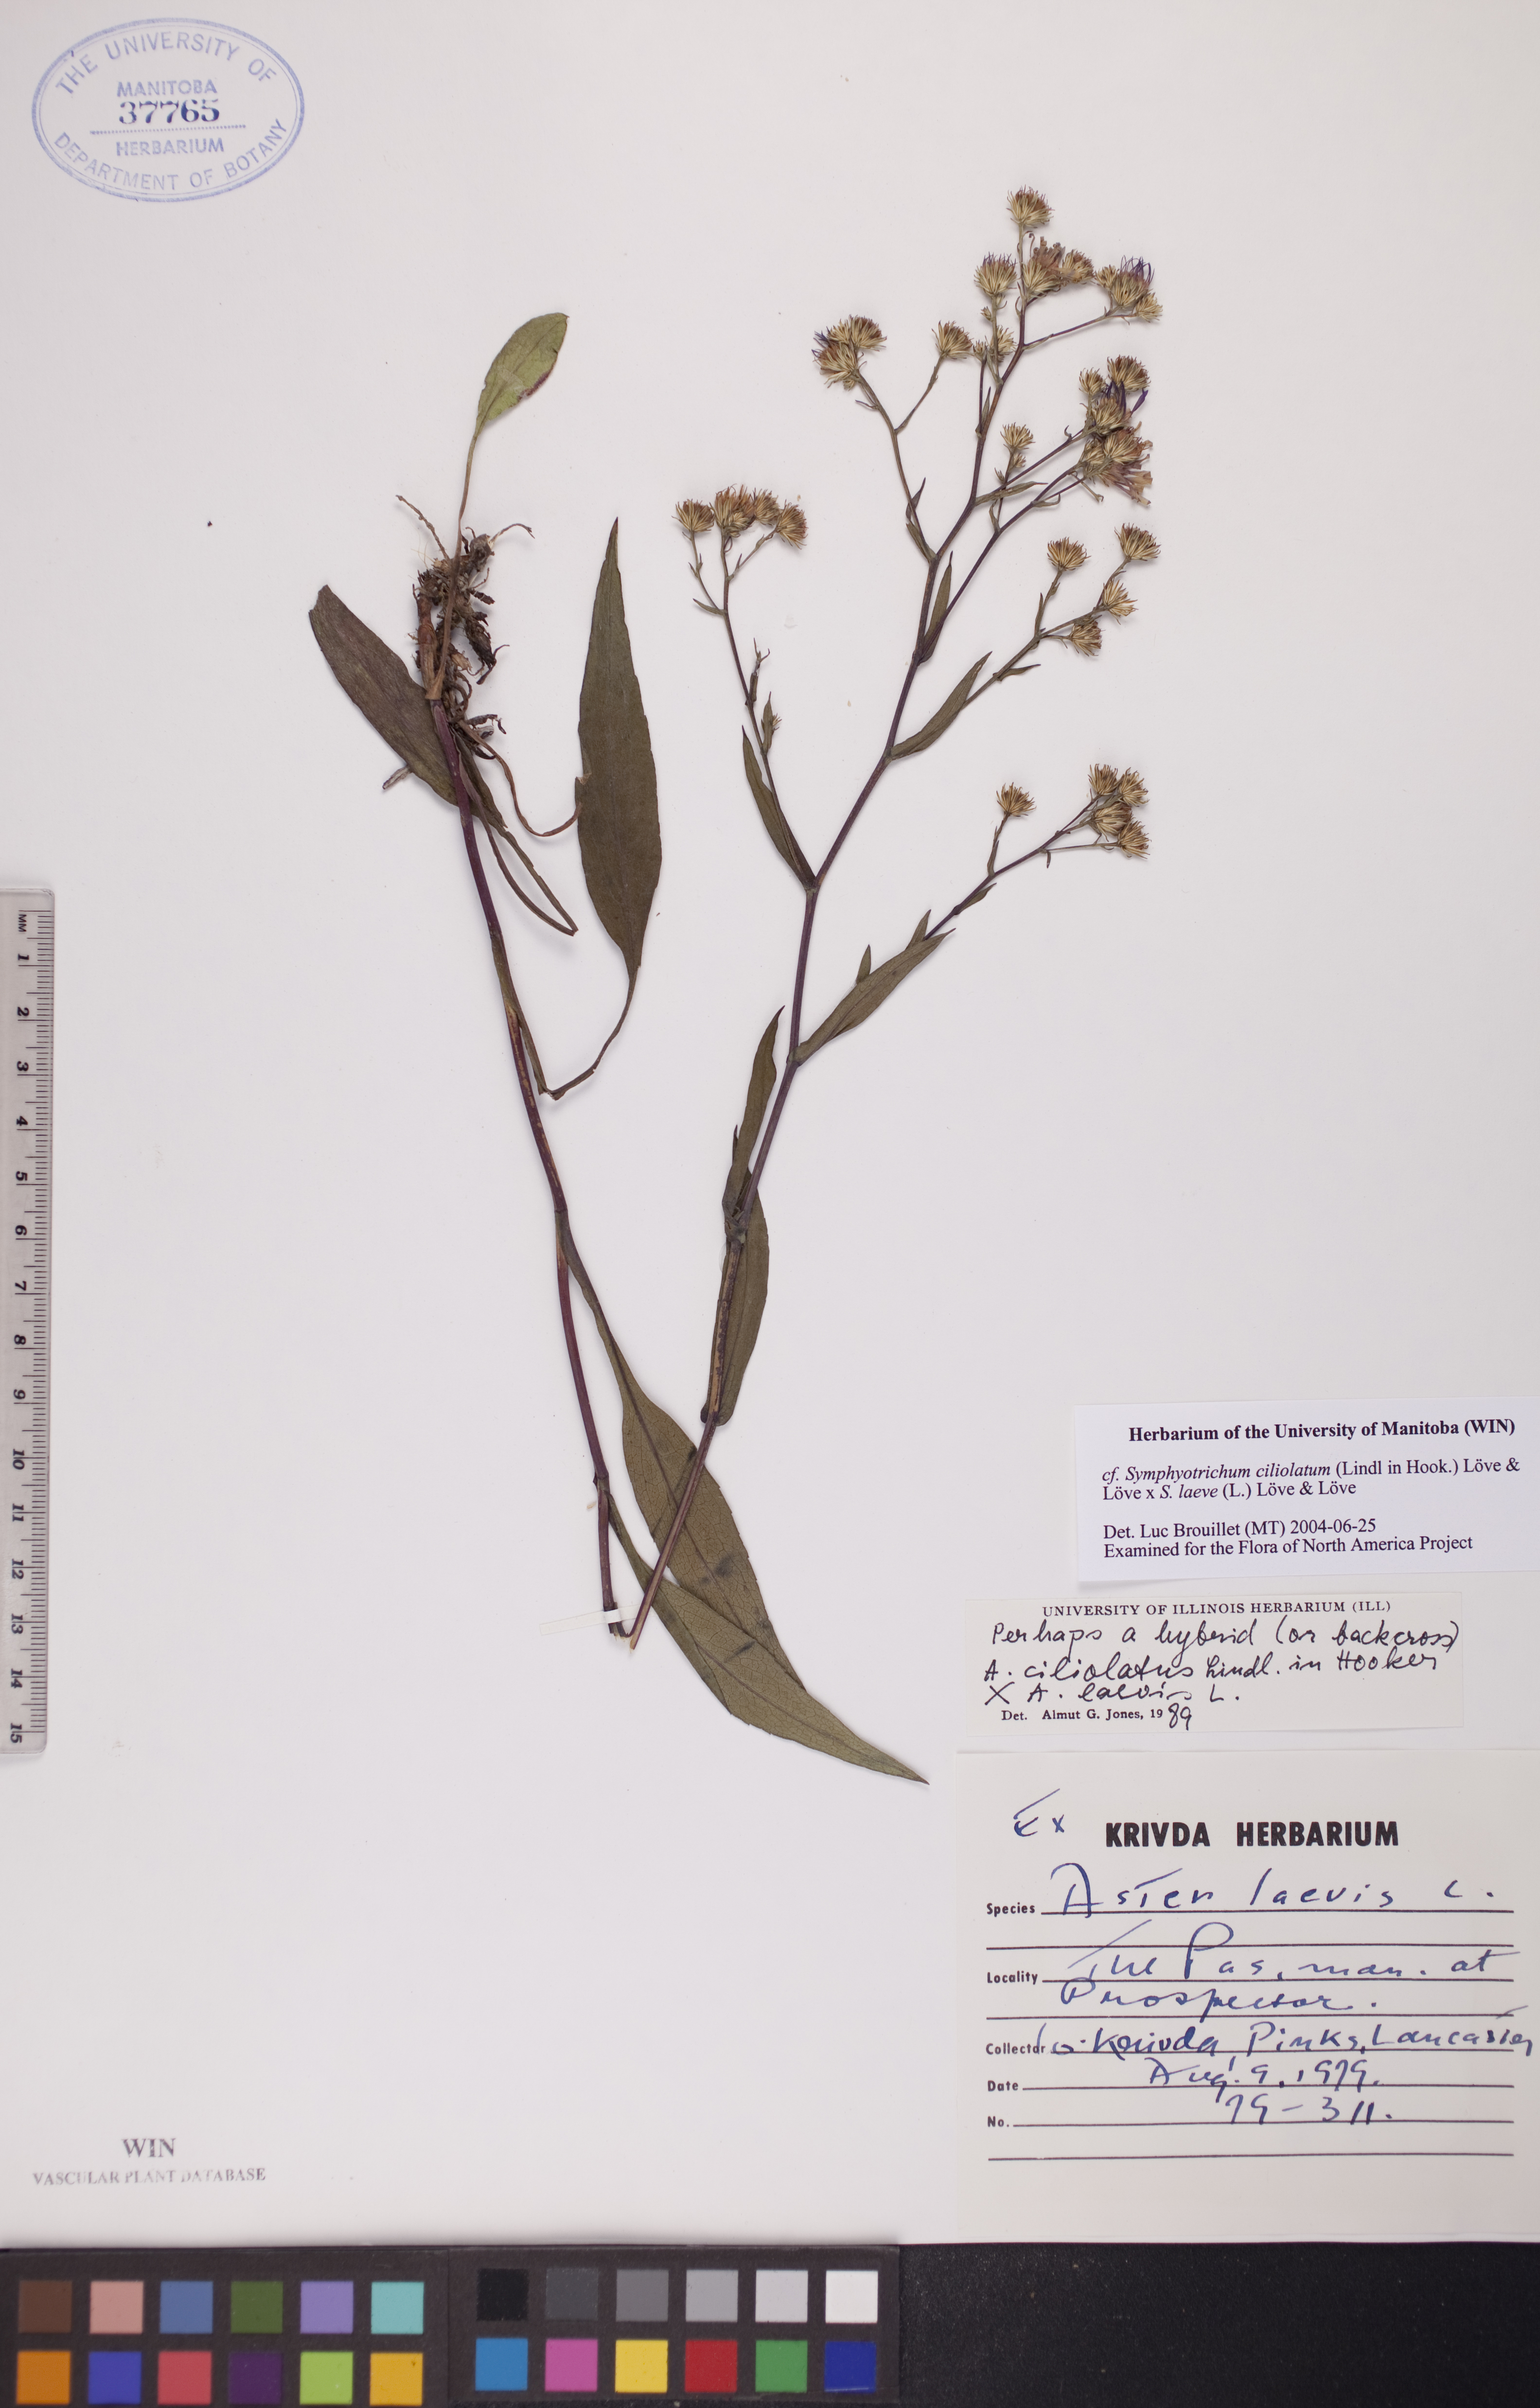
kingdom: Plantae
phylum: Tracheophyta
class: Magnoliopsida
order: Asterales
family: Asteraceae
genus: Symphyotrichum
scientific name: Symphyotrichum laeve
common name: Glaucous aster
